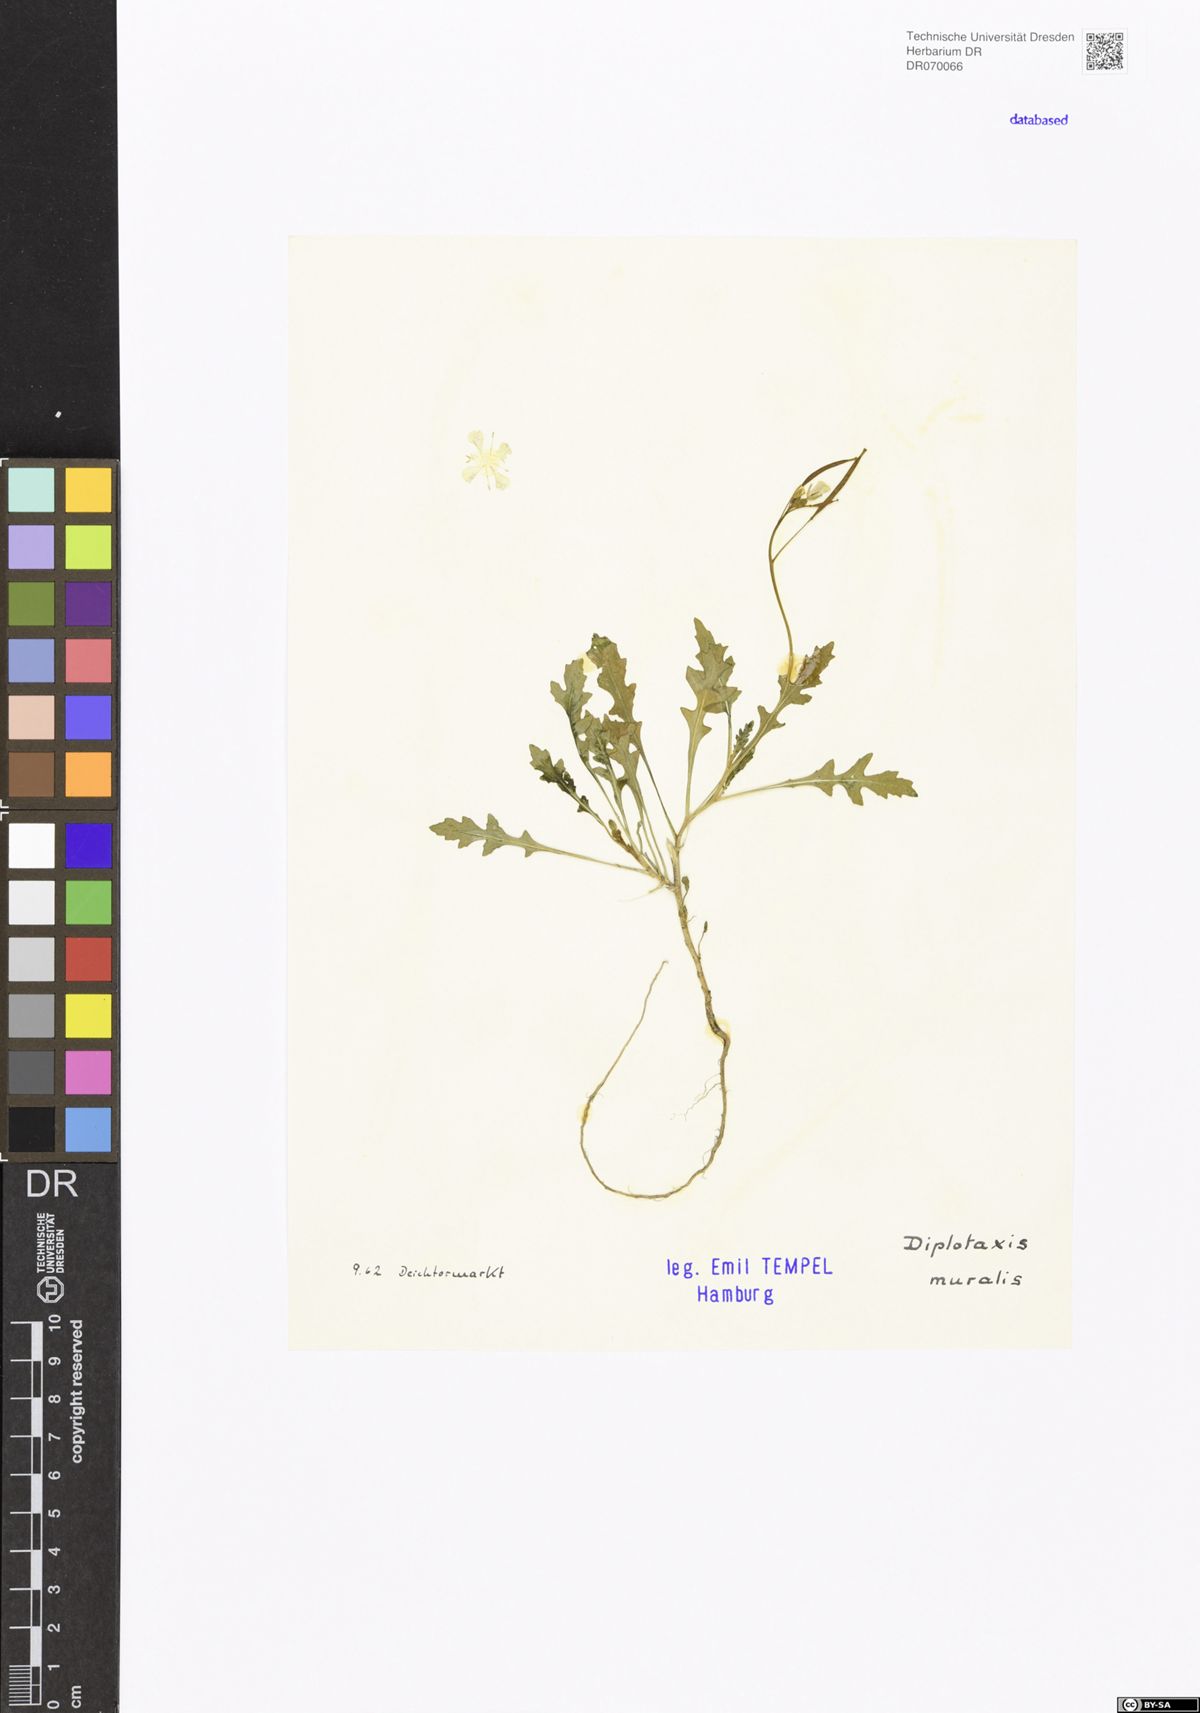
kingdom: Plantae
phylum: Tracheophyta
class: Magnoliopsida
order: Brassicales
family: Brassicaceae
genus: Diplotaxis
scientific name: Diplotaxis muralis
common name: Annual wall-rocket
